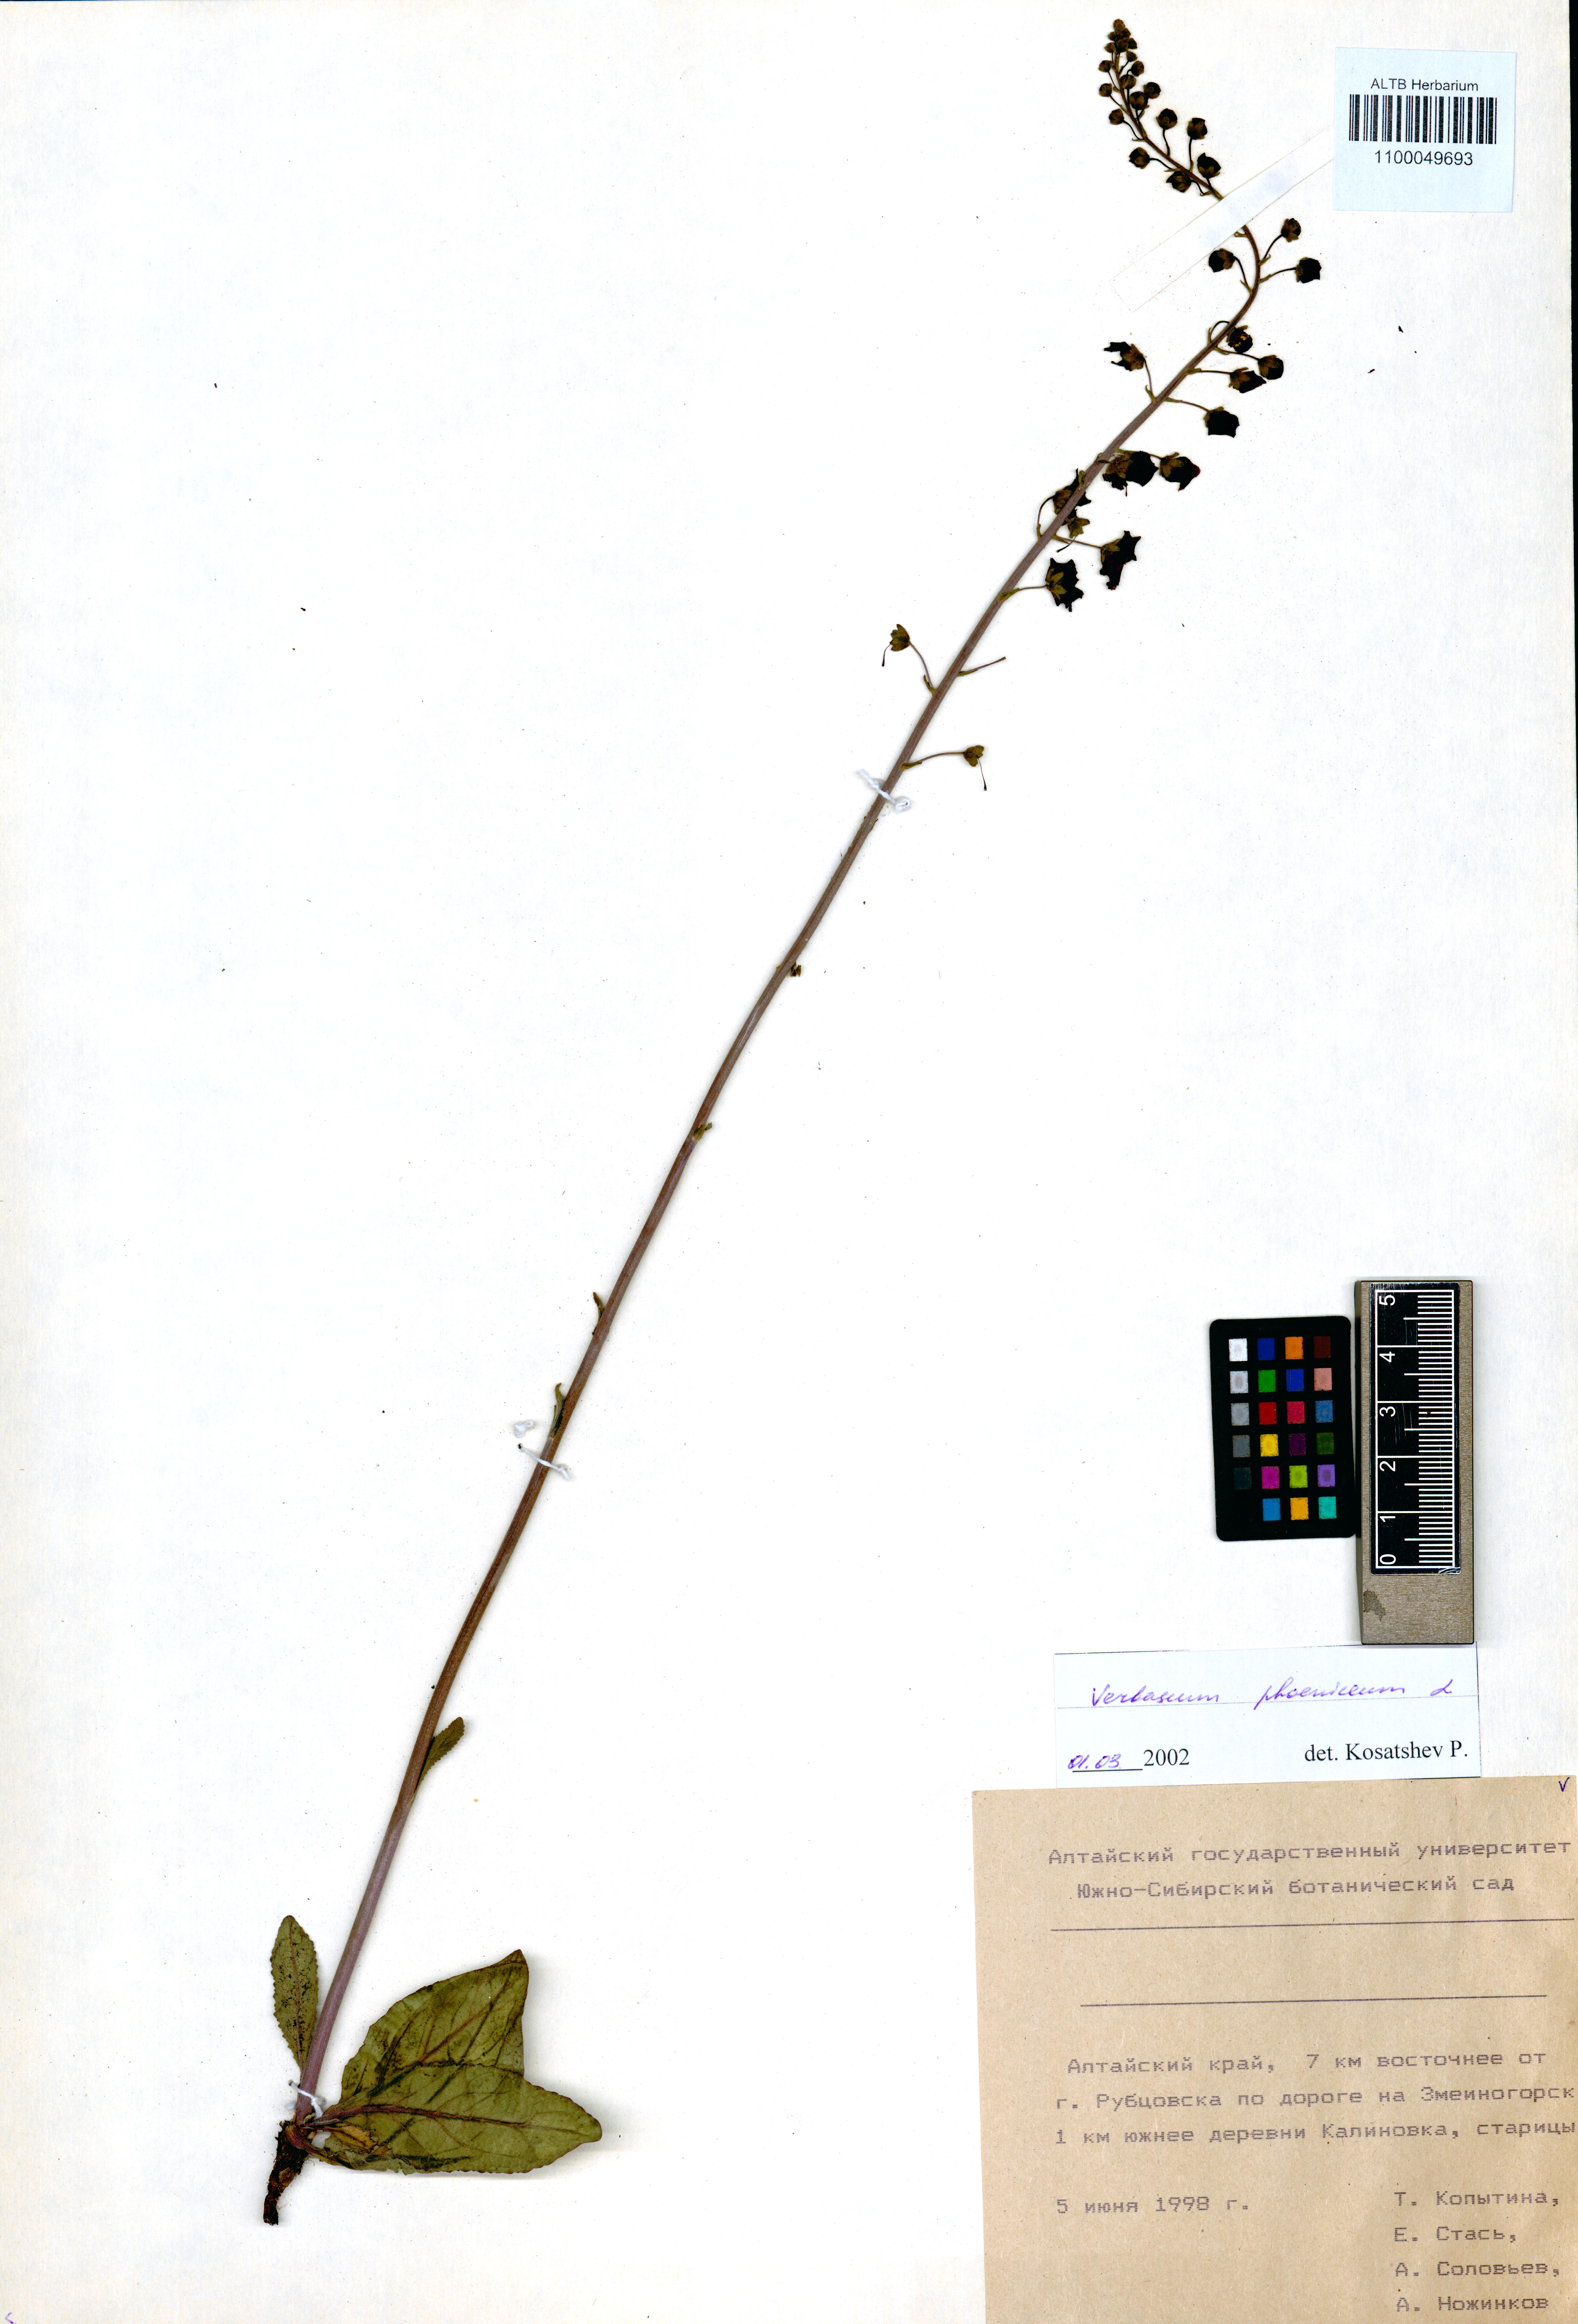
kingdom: Plantae
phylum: Tracheophyta
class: Magnoliopsida
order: Lamiales
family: Scrophulariaceae
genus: Verbascum
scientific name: Verbascum phoeniceum
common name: Purple mullein
